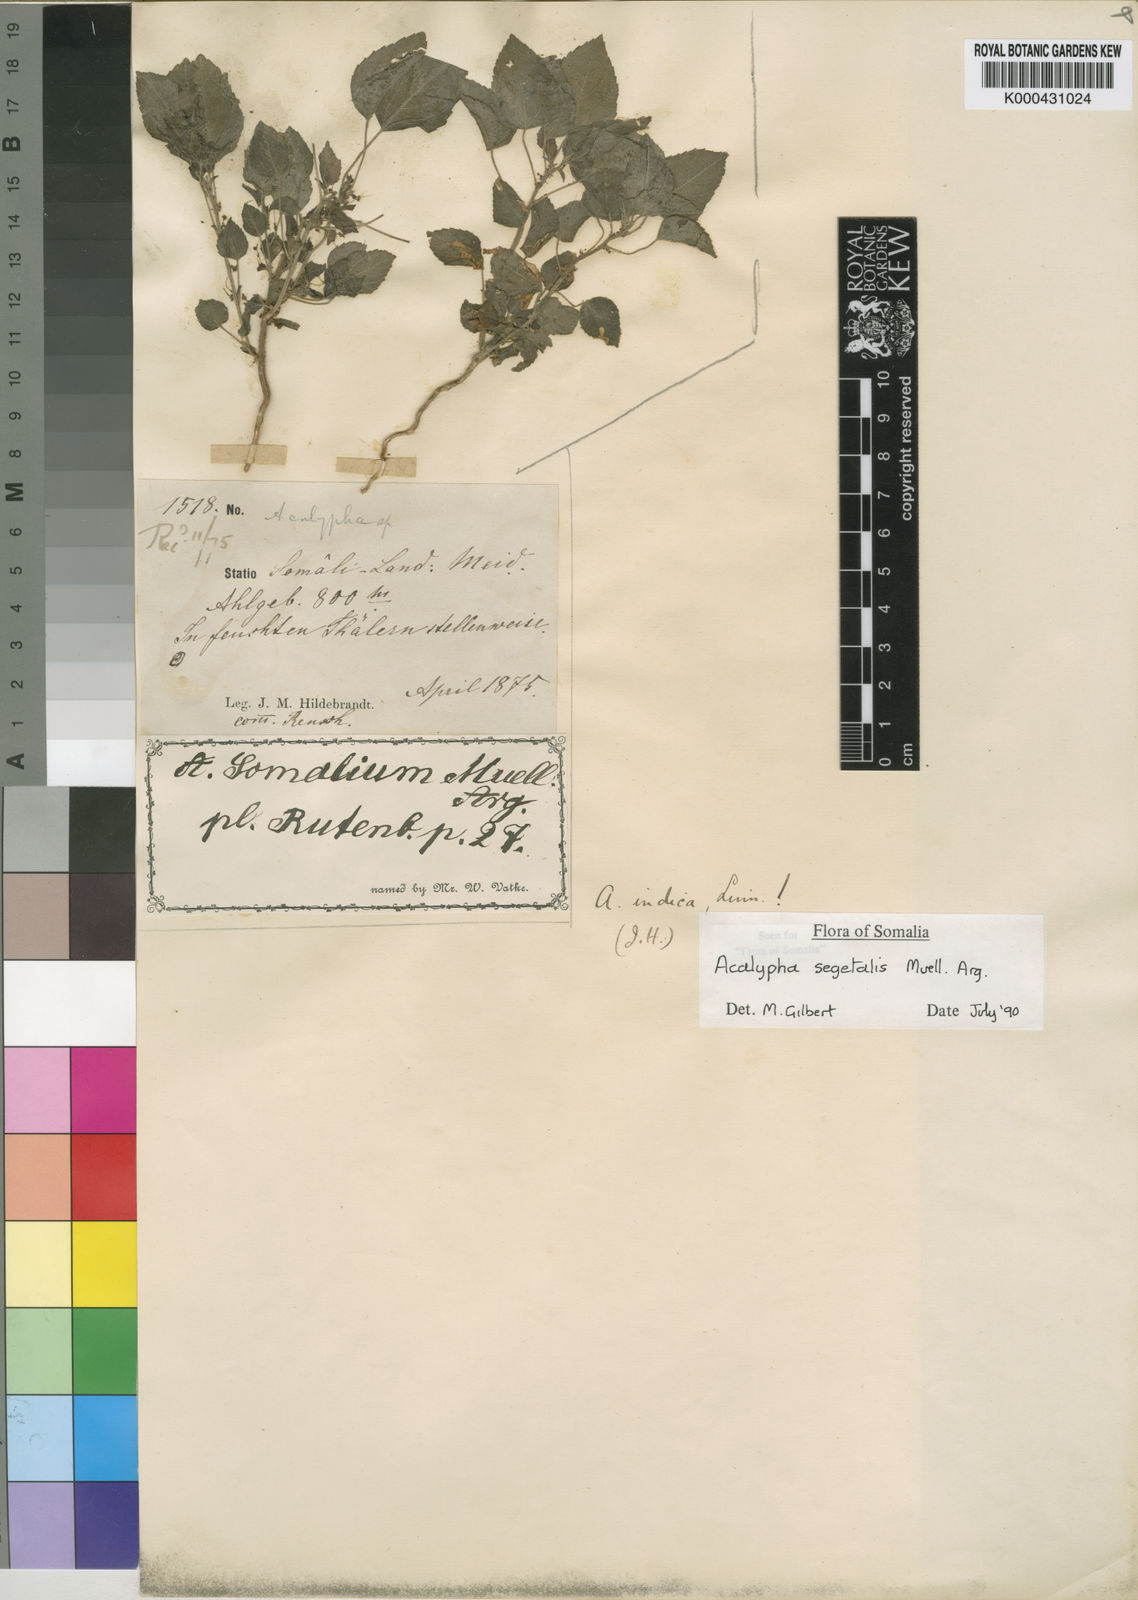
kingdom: Plantae
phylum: Tracheophyta
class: Magnoliopsida
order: Malpighiales
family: Euphorbiaceae
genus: Acalypha
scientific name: Acalypha
